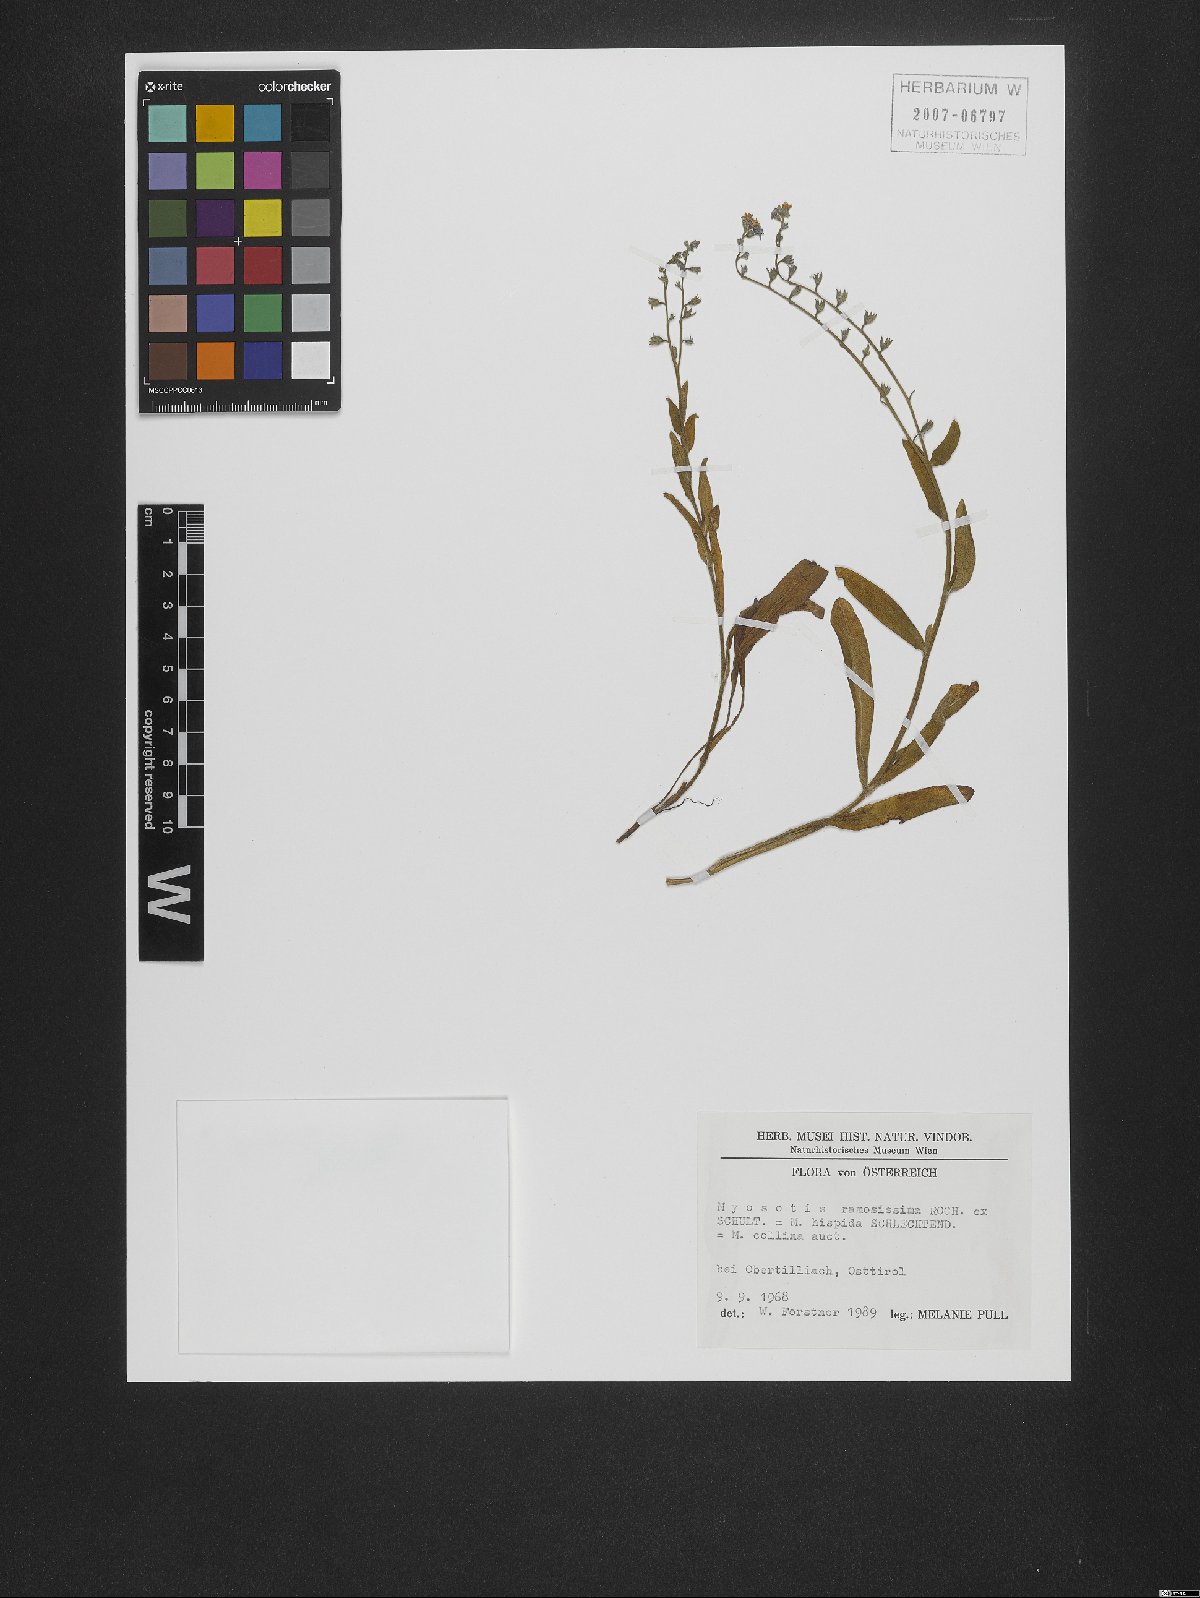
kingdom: Plantae
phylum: Tracheophyta
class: Magnoliopsida
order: Boraginales
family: Boraginaceae
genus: Myosotis
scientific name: Myosotis ramosissima
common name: Early forget-me-not
